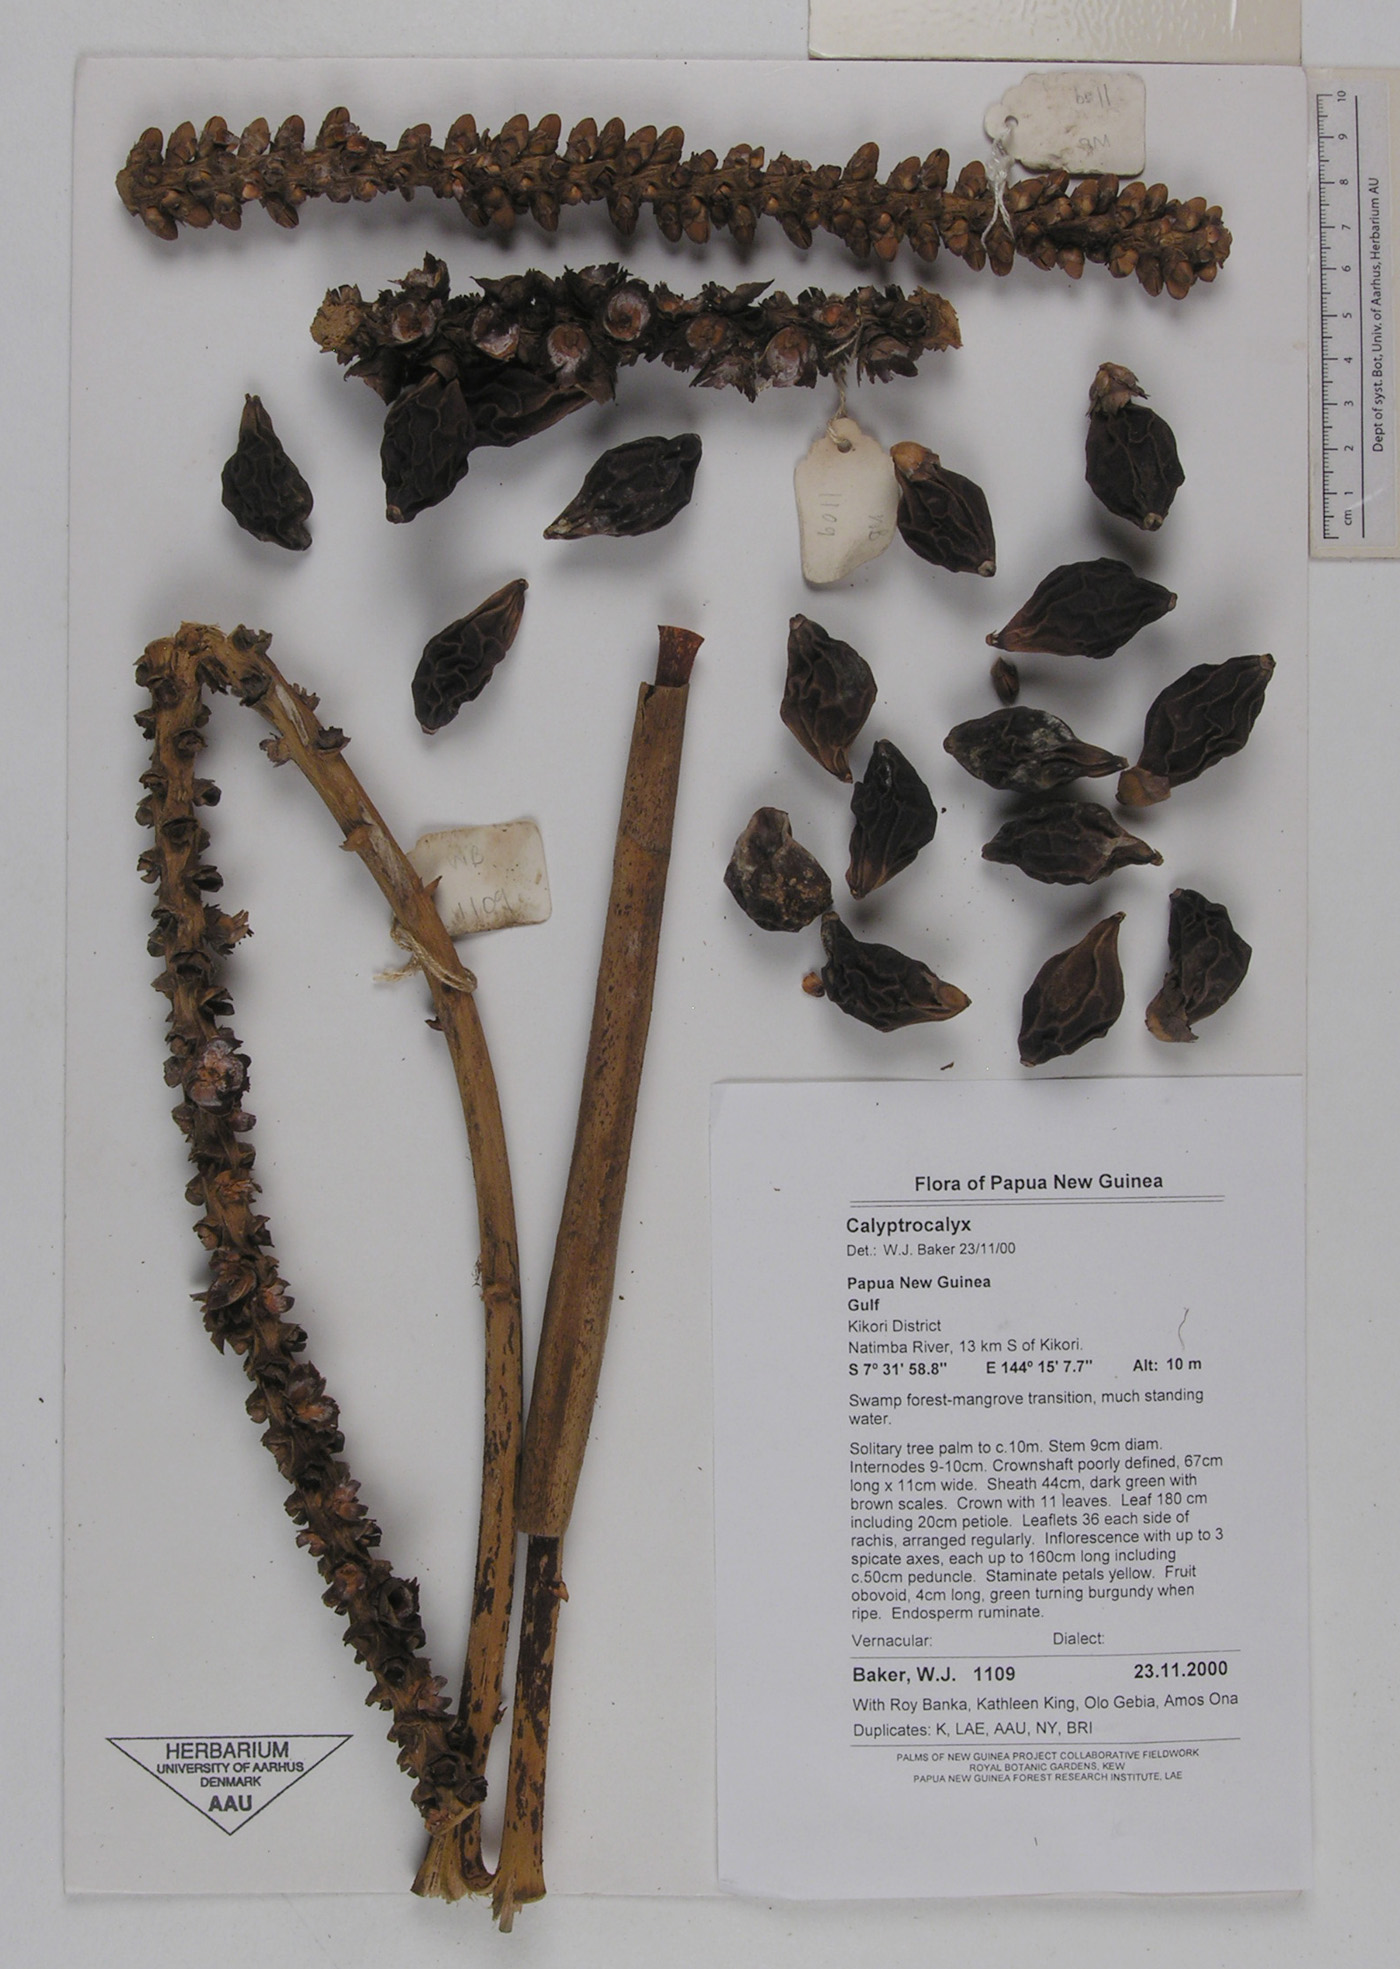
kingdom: Plantae
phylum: Tracheophyta
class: Liliopsida
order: Arecales
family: Arecaceae
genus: Calyptrocalyx
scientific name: Calyptrocalyx
